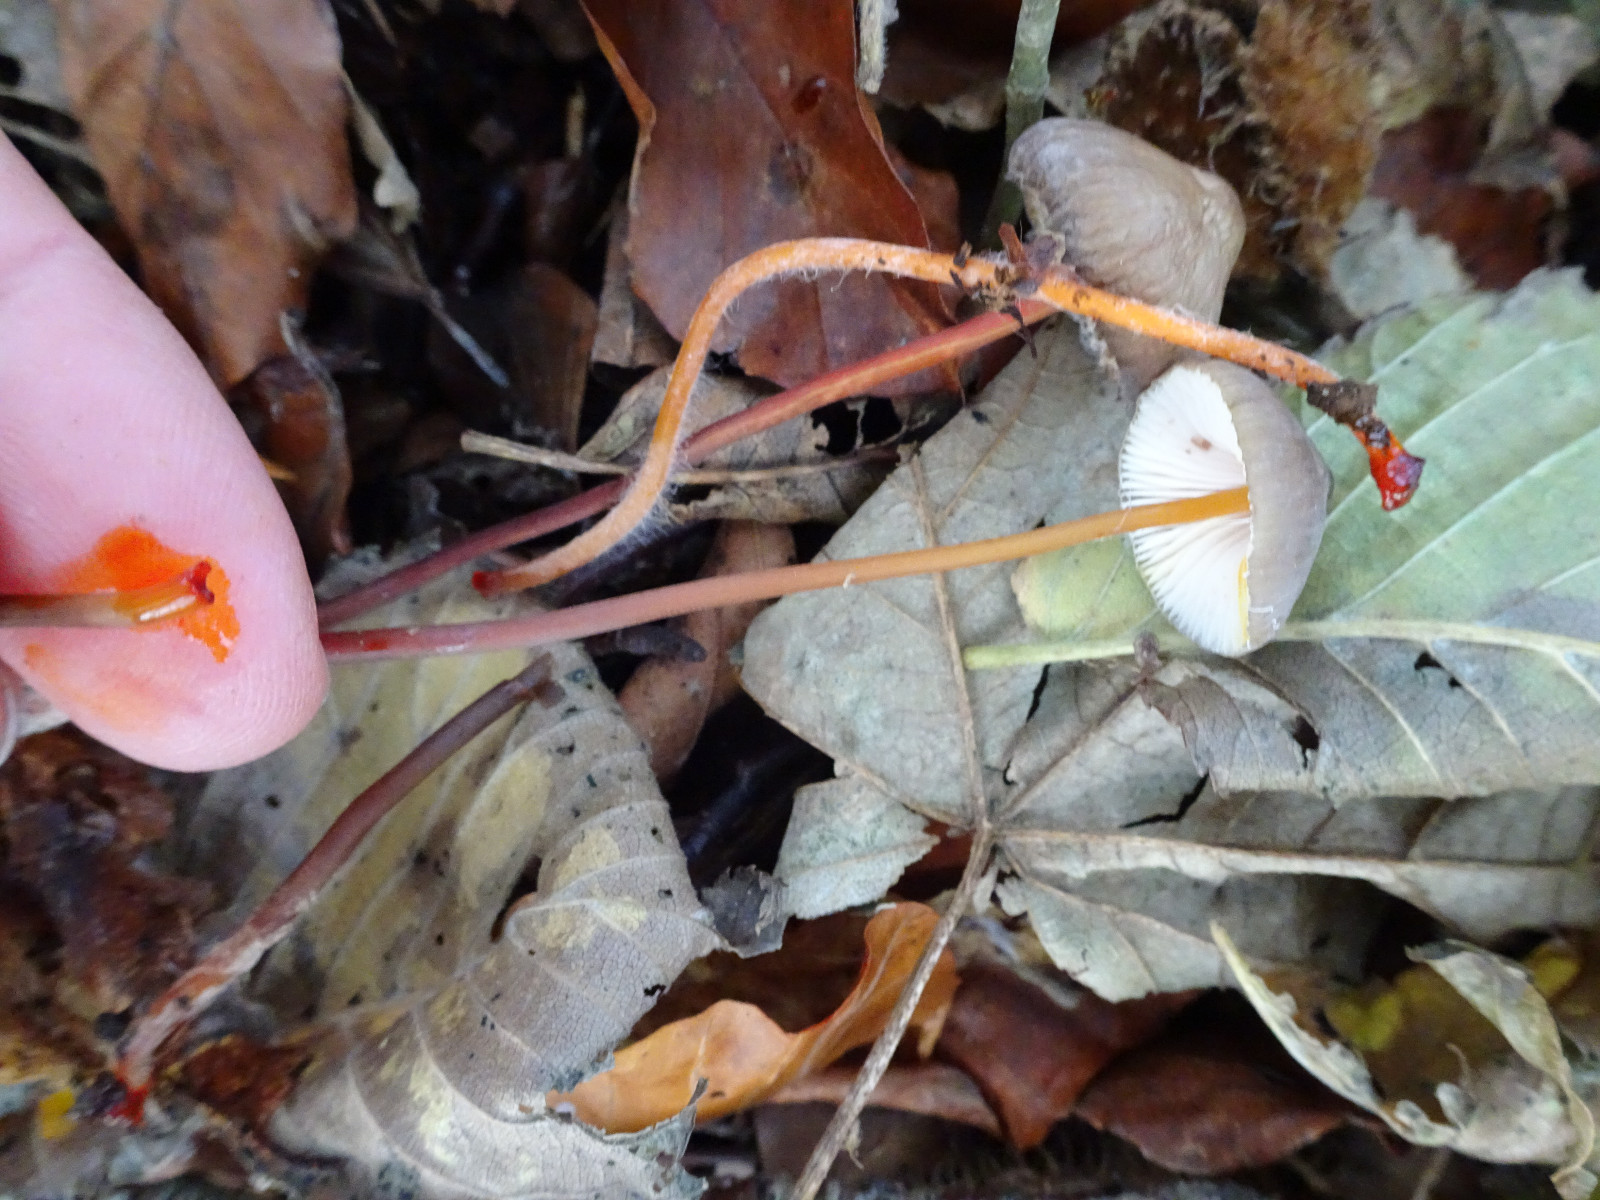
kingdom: Fungi
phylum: Basidiomycota
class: Agaricomycetes
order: Agaricales
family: Mycenaceae
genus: Mycena
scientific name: Mycena crocata
